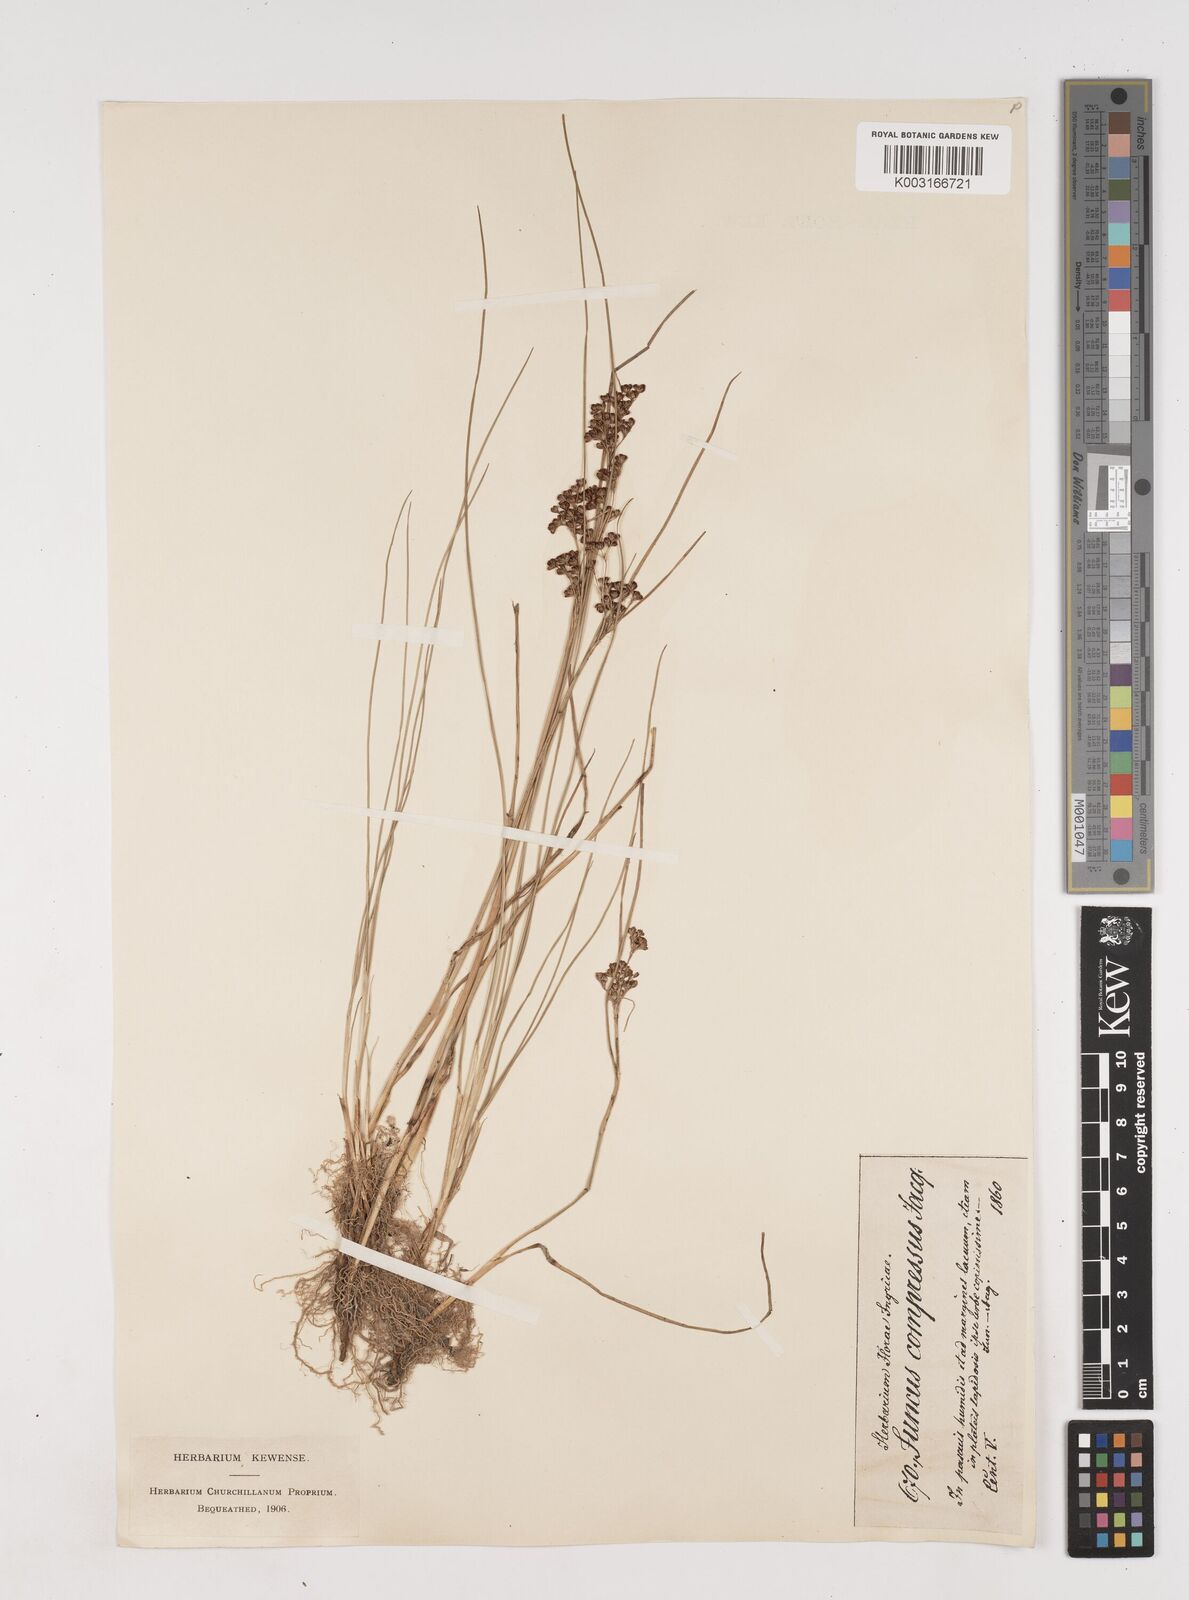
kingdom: Plantae
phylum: Tracheophyta
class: Liliopsida
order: Poales
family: Juncaceae
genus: Juncus
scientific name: Juncus
